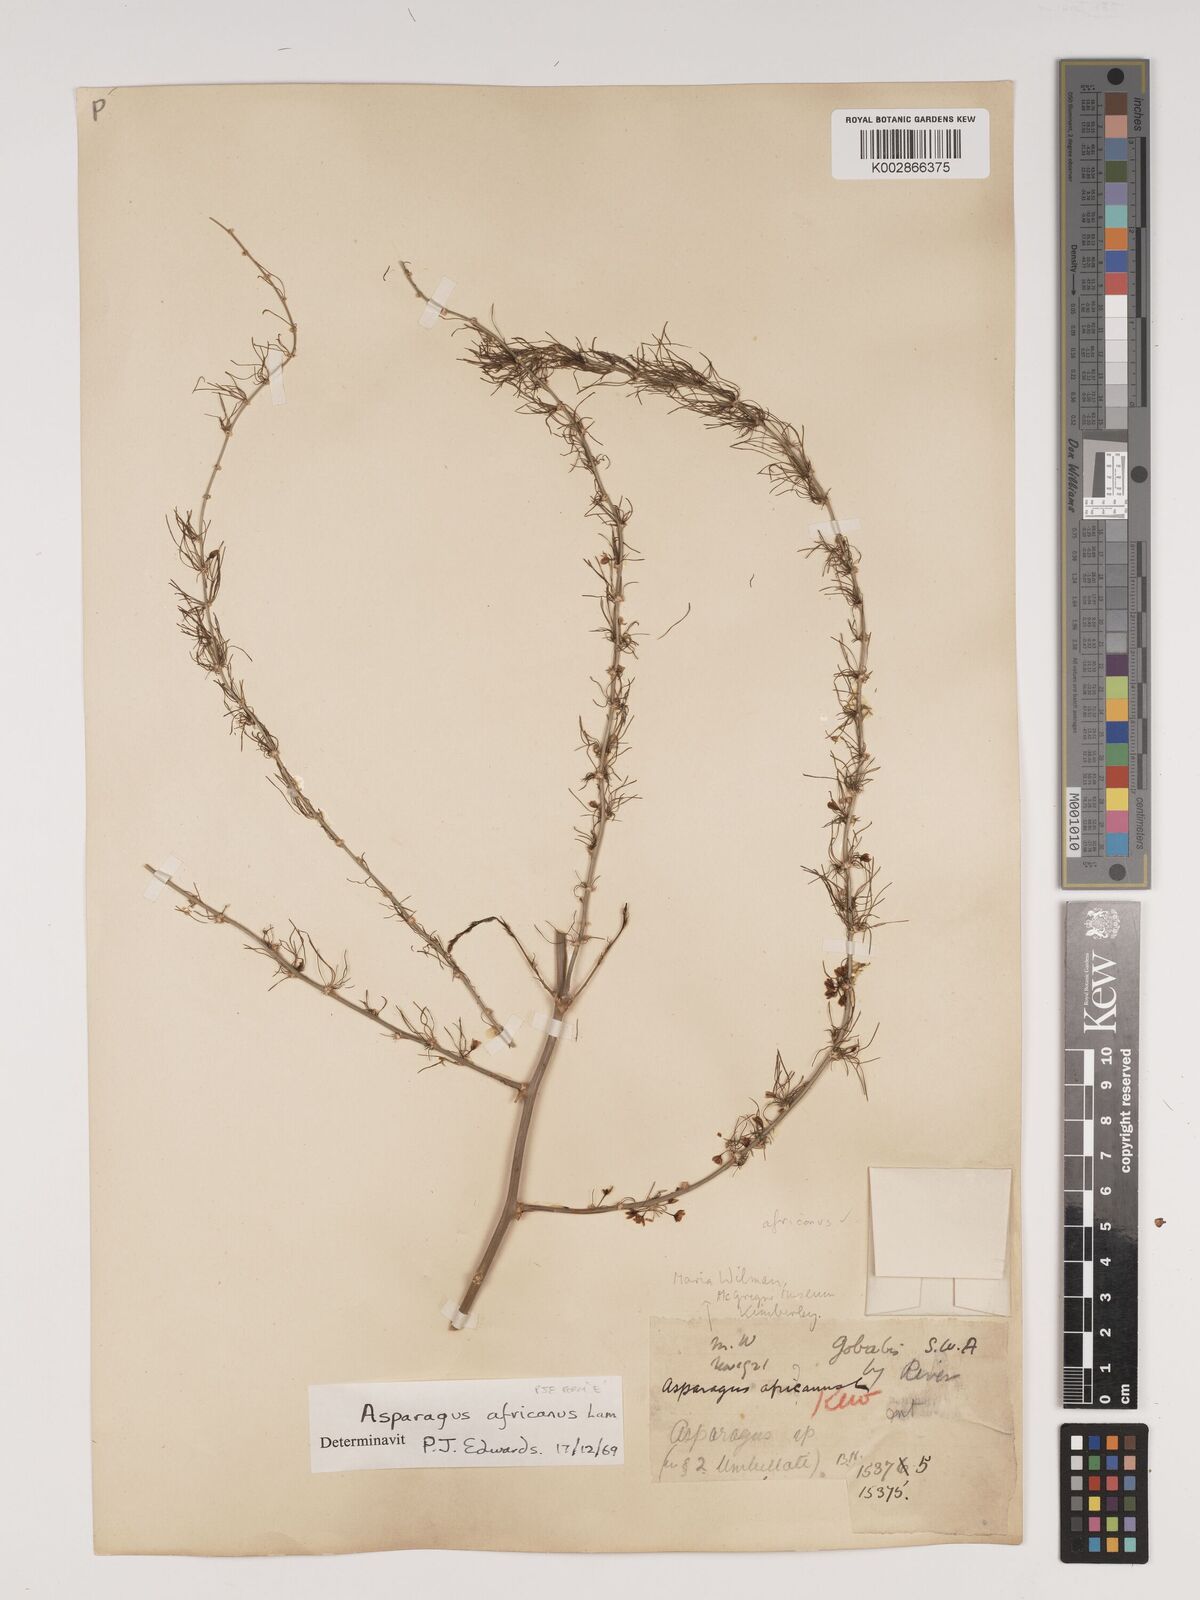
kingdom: Plantae
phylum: Tracheophyta
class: Liliopsida
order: Asparagales
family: Asparagaceae
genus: Asparagus
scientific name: Asparagus africanus
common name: Asparagus-fern
